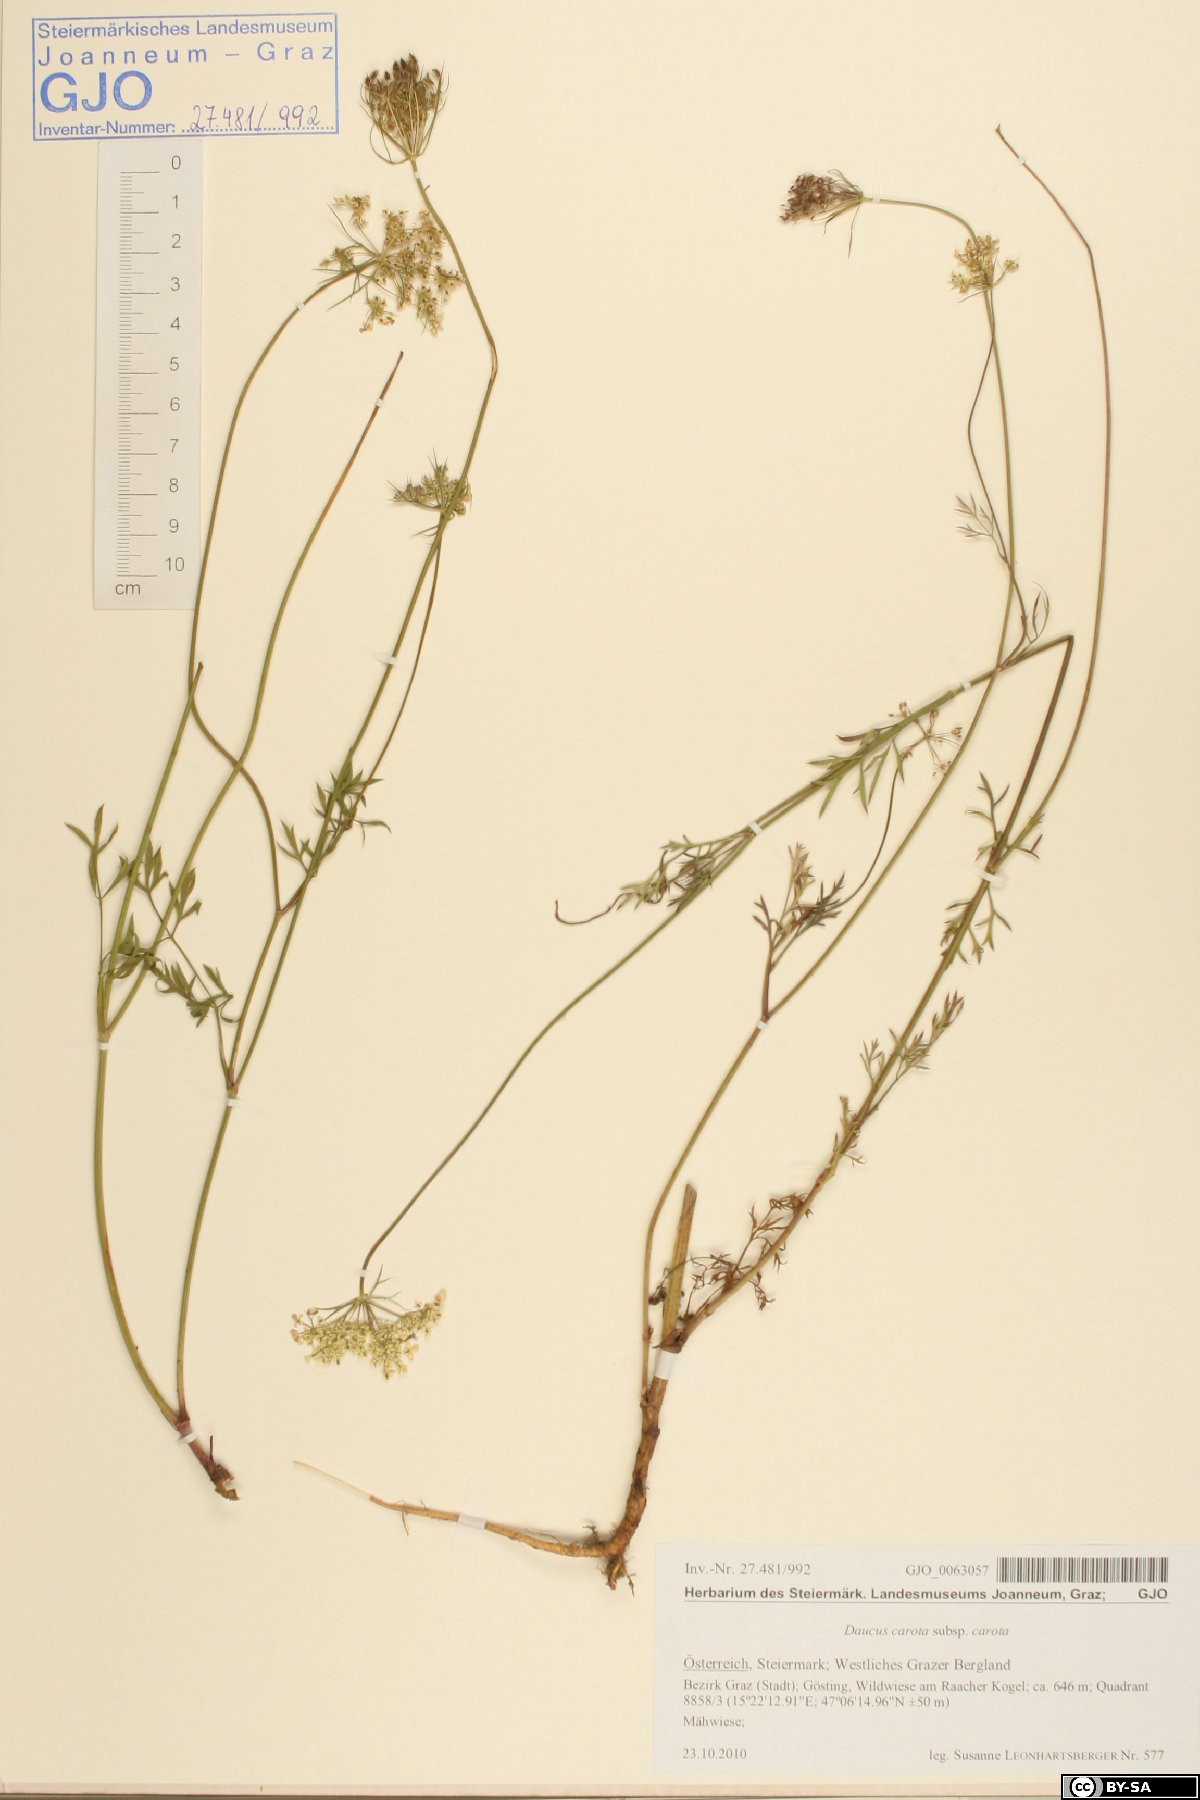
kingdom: Plantae
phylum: Tracheophyta
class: Magnoliopsida
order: Apiales
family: Apiaceae
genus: Daucus
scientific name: Daucus carota
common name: Wild carrot
